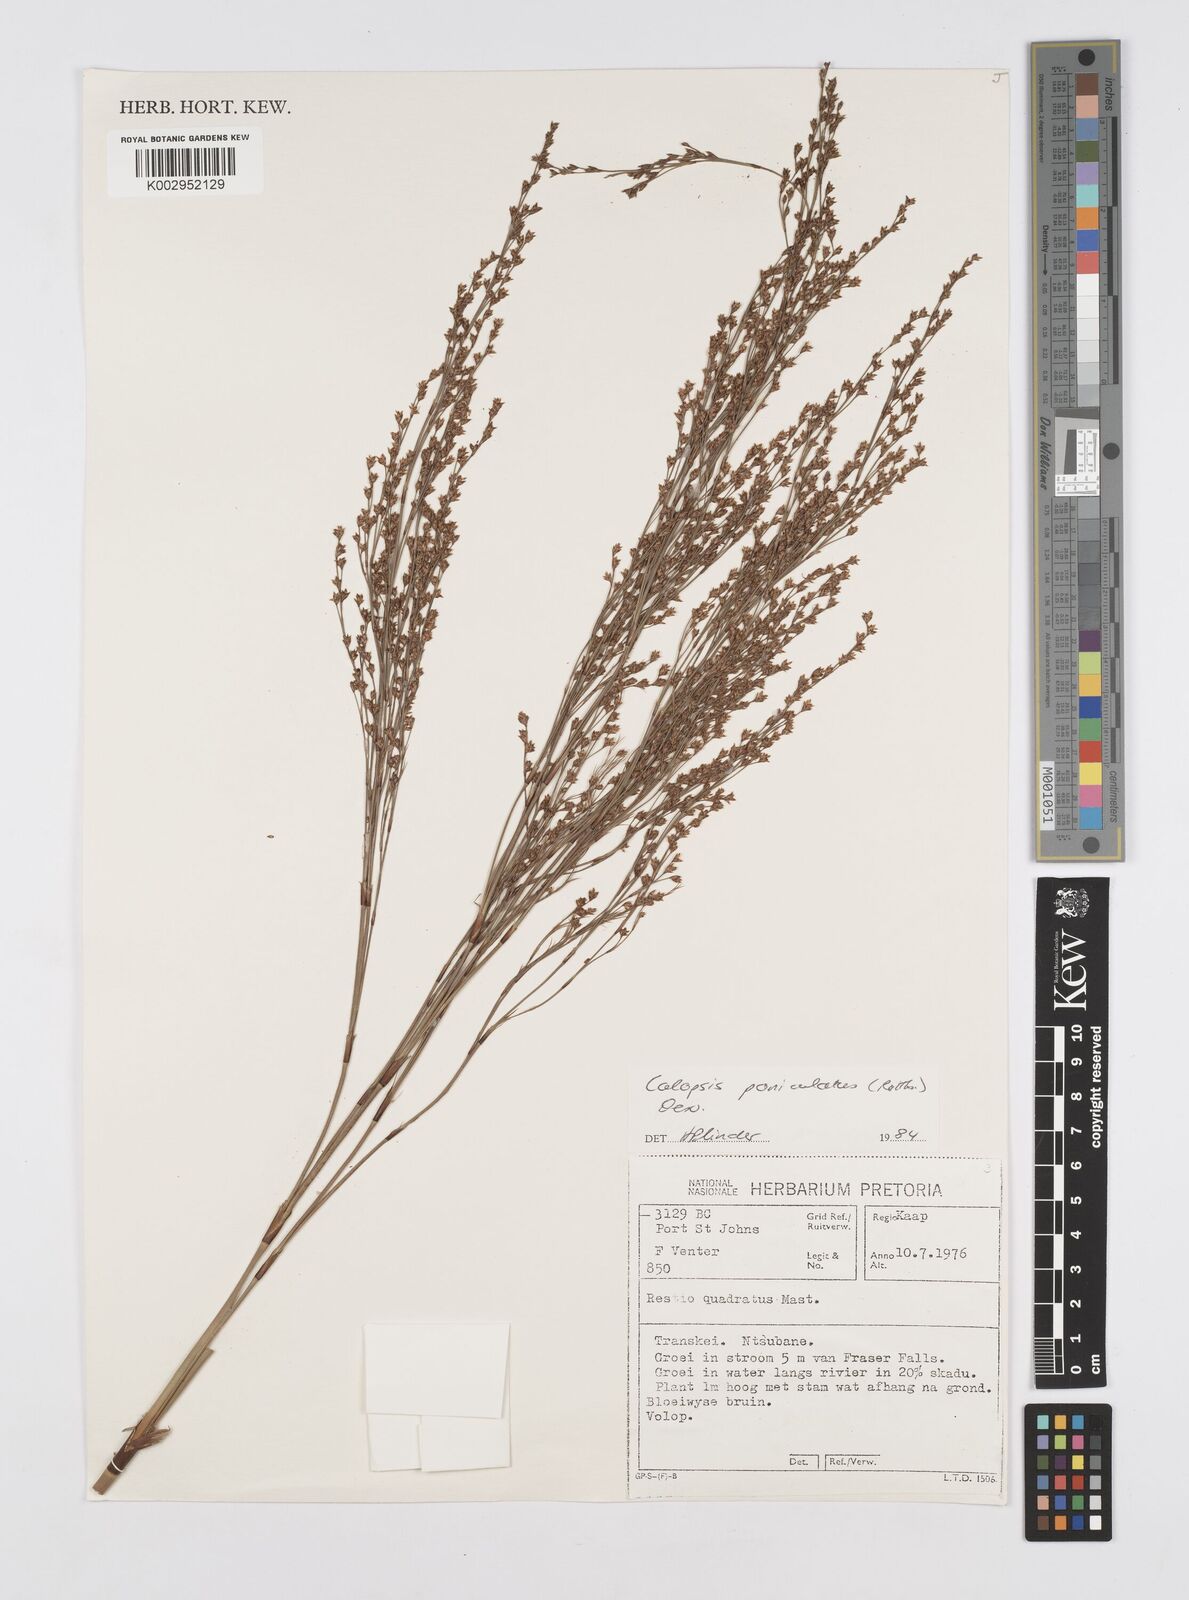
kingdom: Plantae
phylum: Tracheophyta
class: Liliopsida
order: Poales
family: Restionaceae
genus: Restio
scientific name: Restio paniculatus
